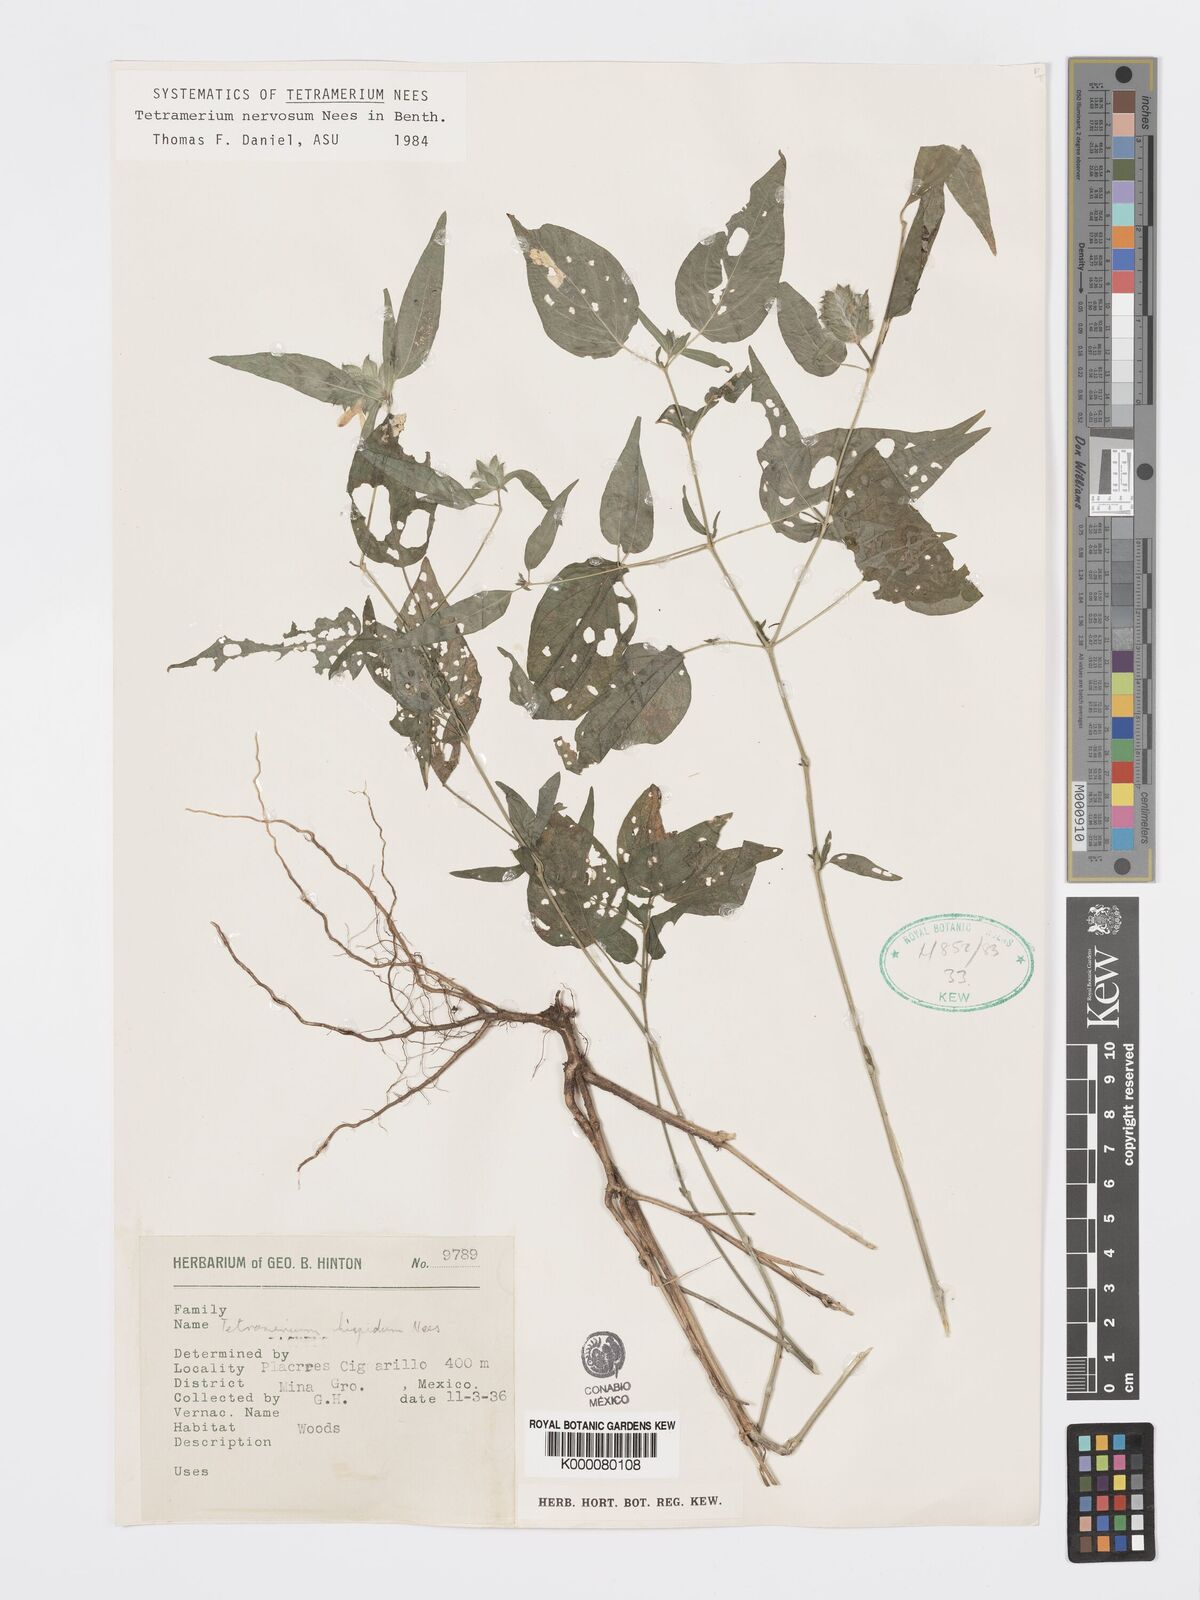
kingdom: Plantae
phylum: Tracheophyta
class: Magnoliopsida
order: Lamiales
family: Acanthaceae
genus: Tetramerium
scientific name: Tetramerium nervosum
